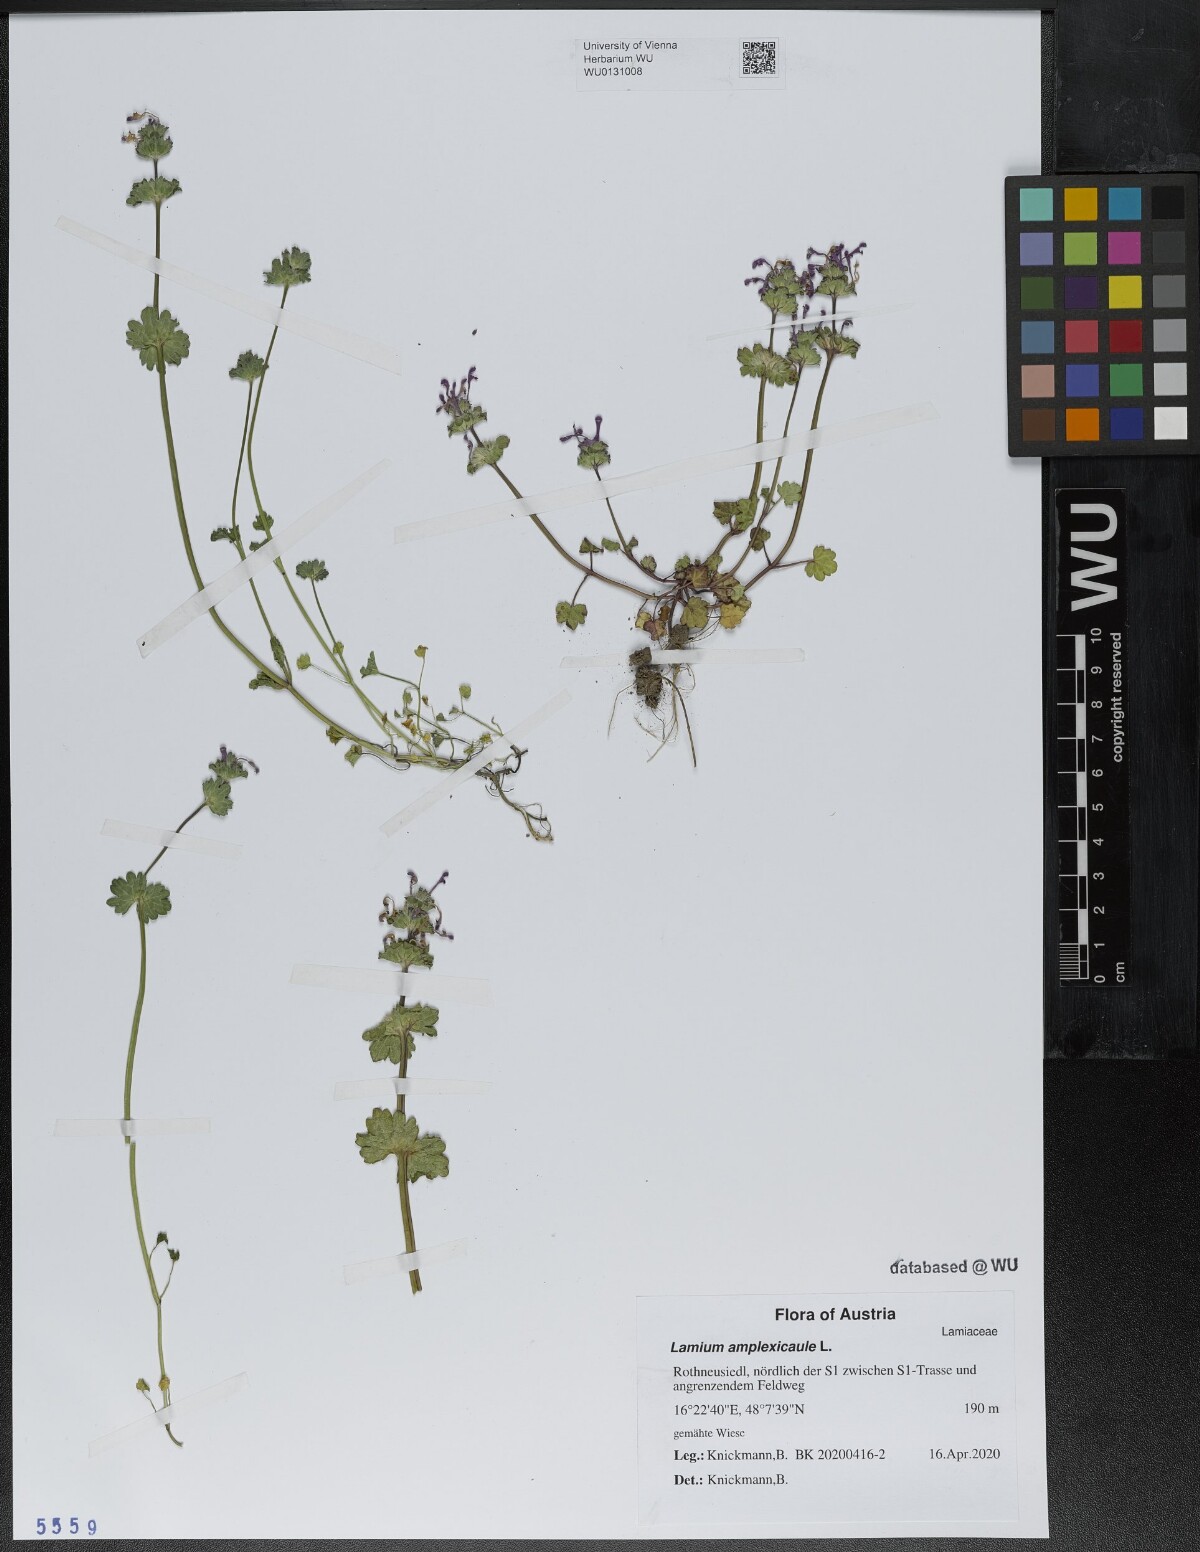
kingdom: Plantae
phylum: Tracheophyta
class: Magnoliopsida
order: Lamiales
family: Lamiaceae
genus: Lamium
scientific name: Lamium amplexicaule
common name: Henbit dead-nettle
